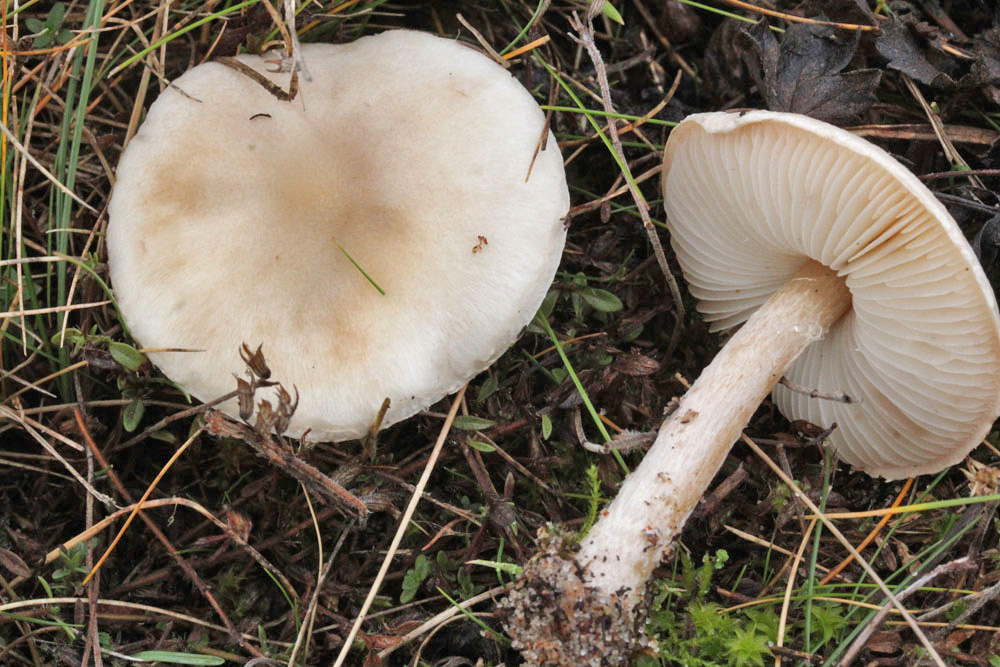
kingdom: Fungi
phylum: Basidiomycota
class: Agaricomycetes
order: Agaricales
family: Agaricaceae
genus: Lepiota
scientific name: Lepiota erminea
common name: hvid parasolhat
